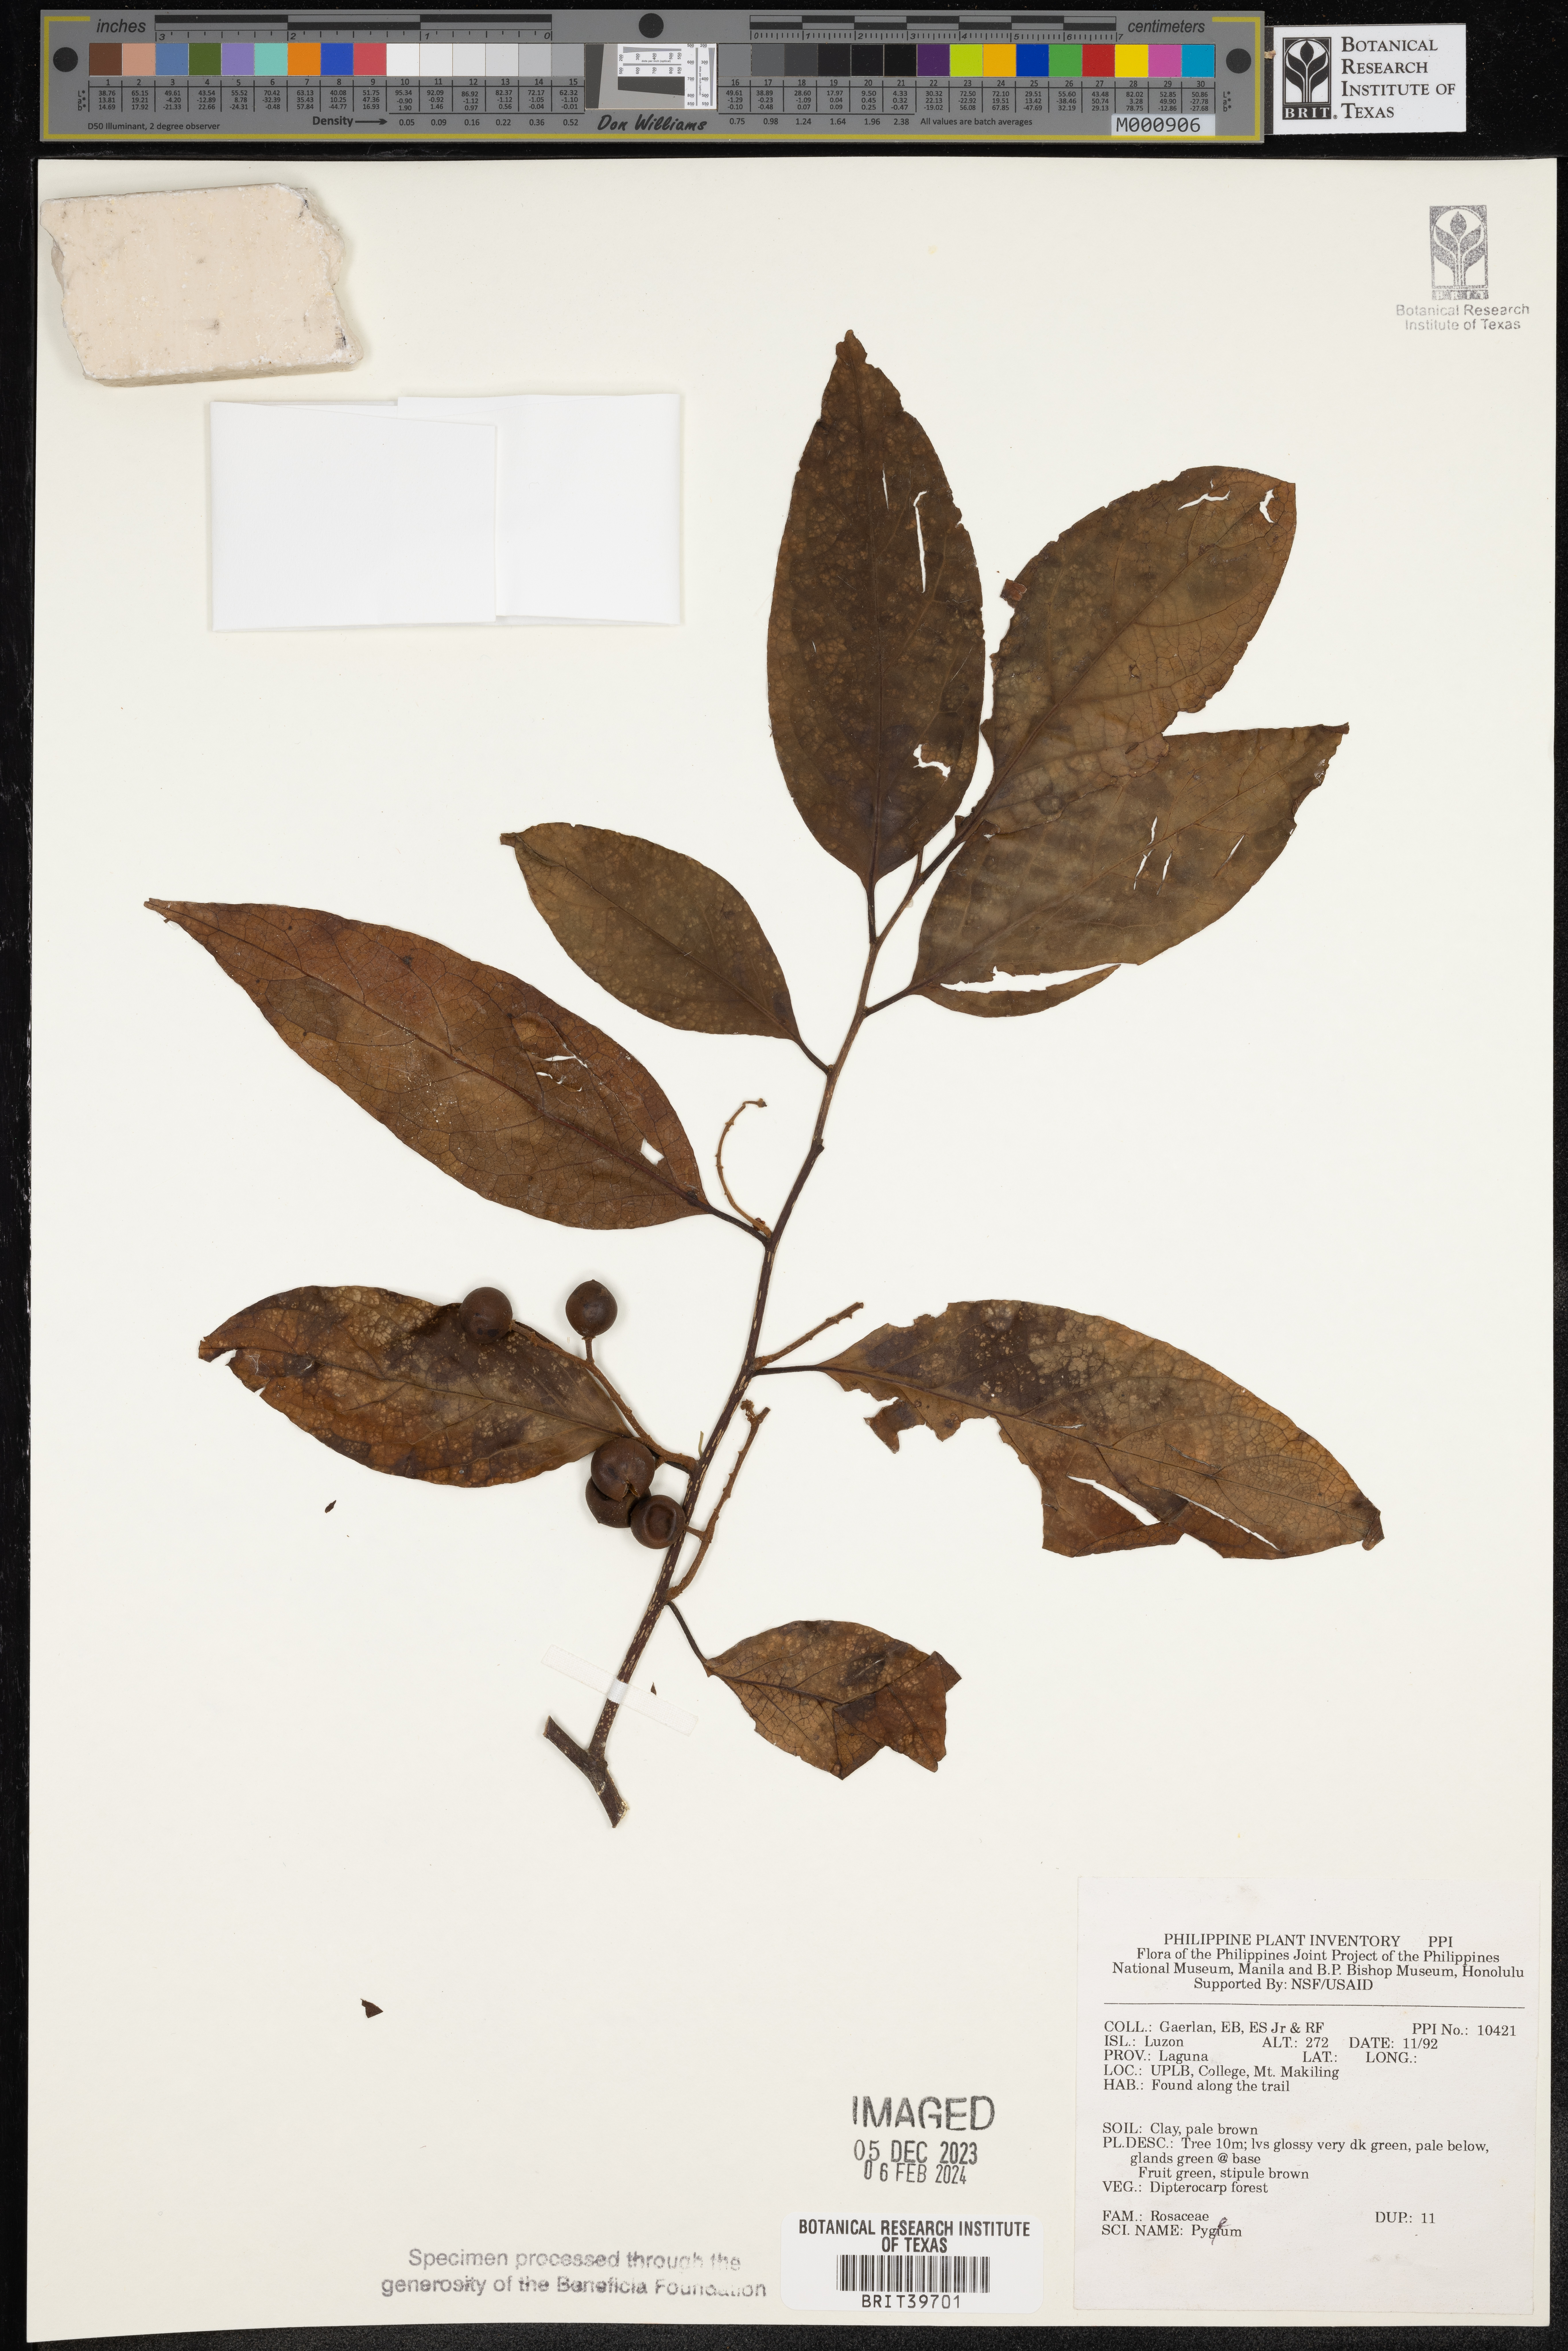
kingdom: Plantae
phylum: Tracheophyta
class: Magnoliopsida
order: Rosales
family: Rosaceae
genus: Prunus
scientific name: Prunus
